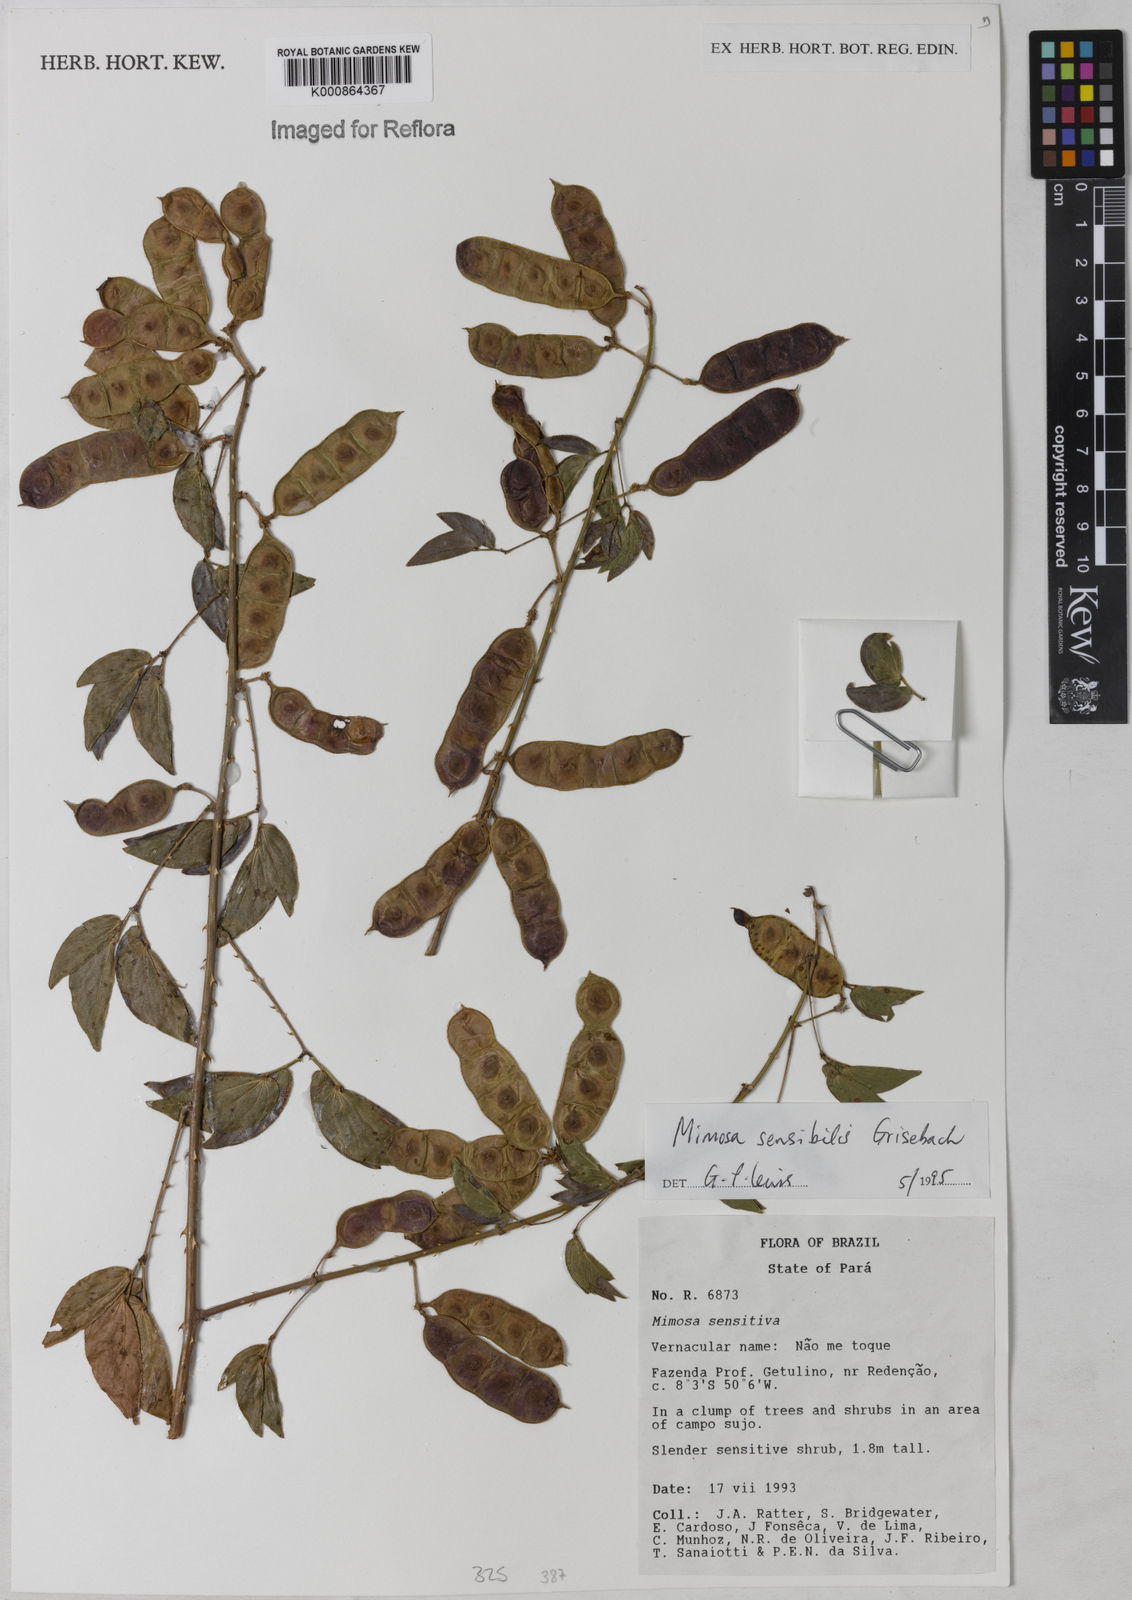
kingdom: Plantae
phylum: Tracheophyta
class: Magnoliopsida
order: Fabales
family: Fabaceae
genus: Mimosa
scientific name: Mimosa sensibilis
